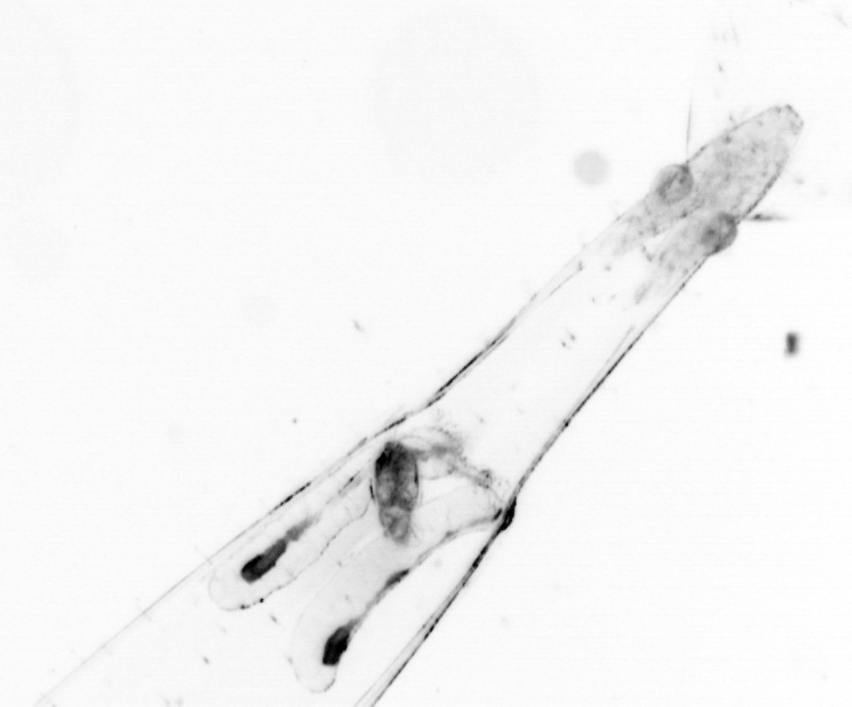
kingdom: Animalia
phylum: Chaetognatha
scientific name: Chaetognatha
